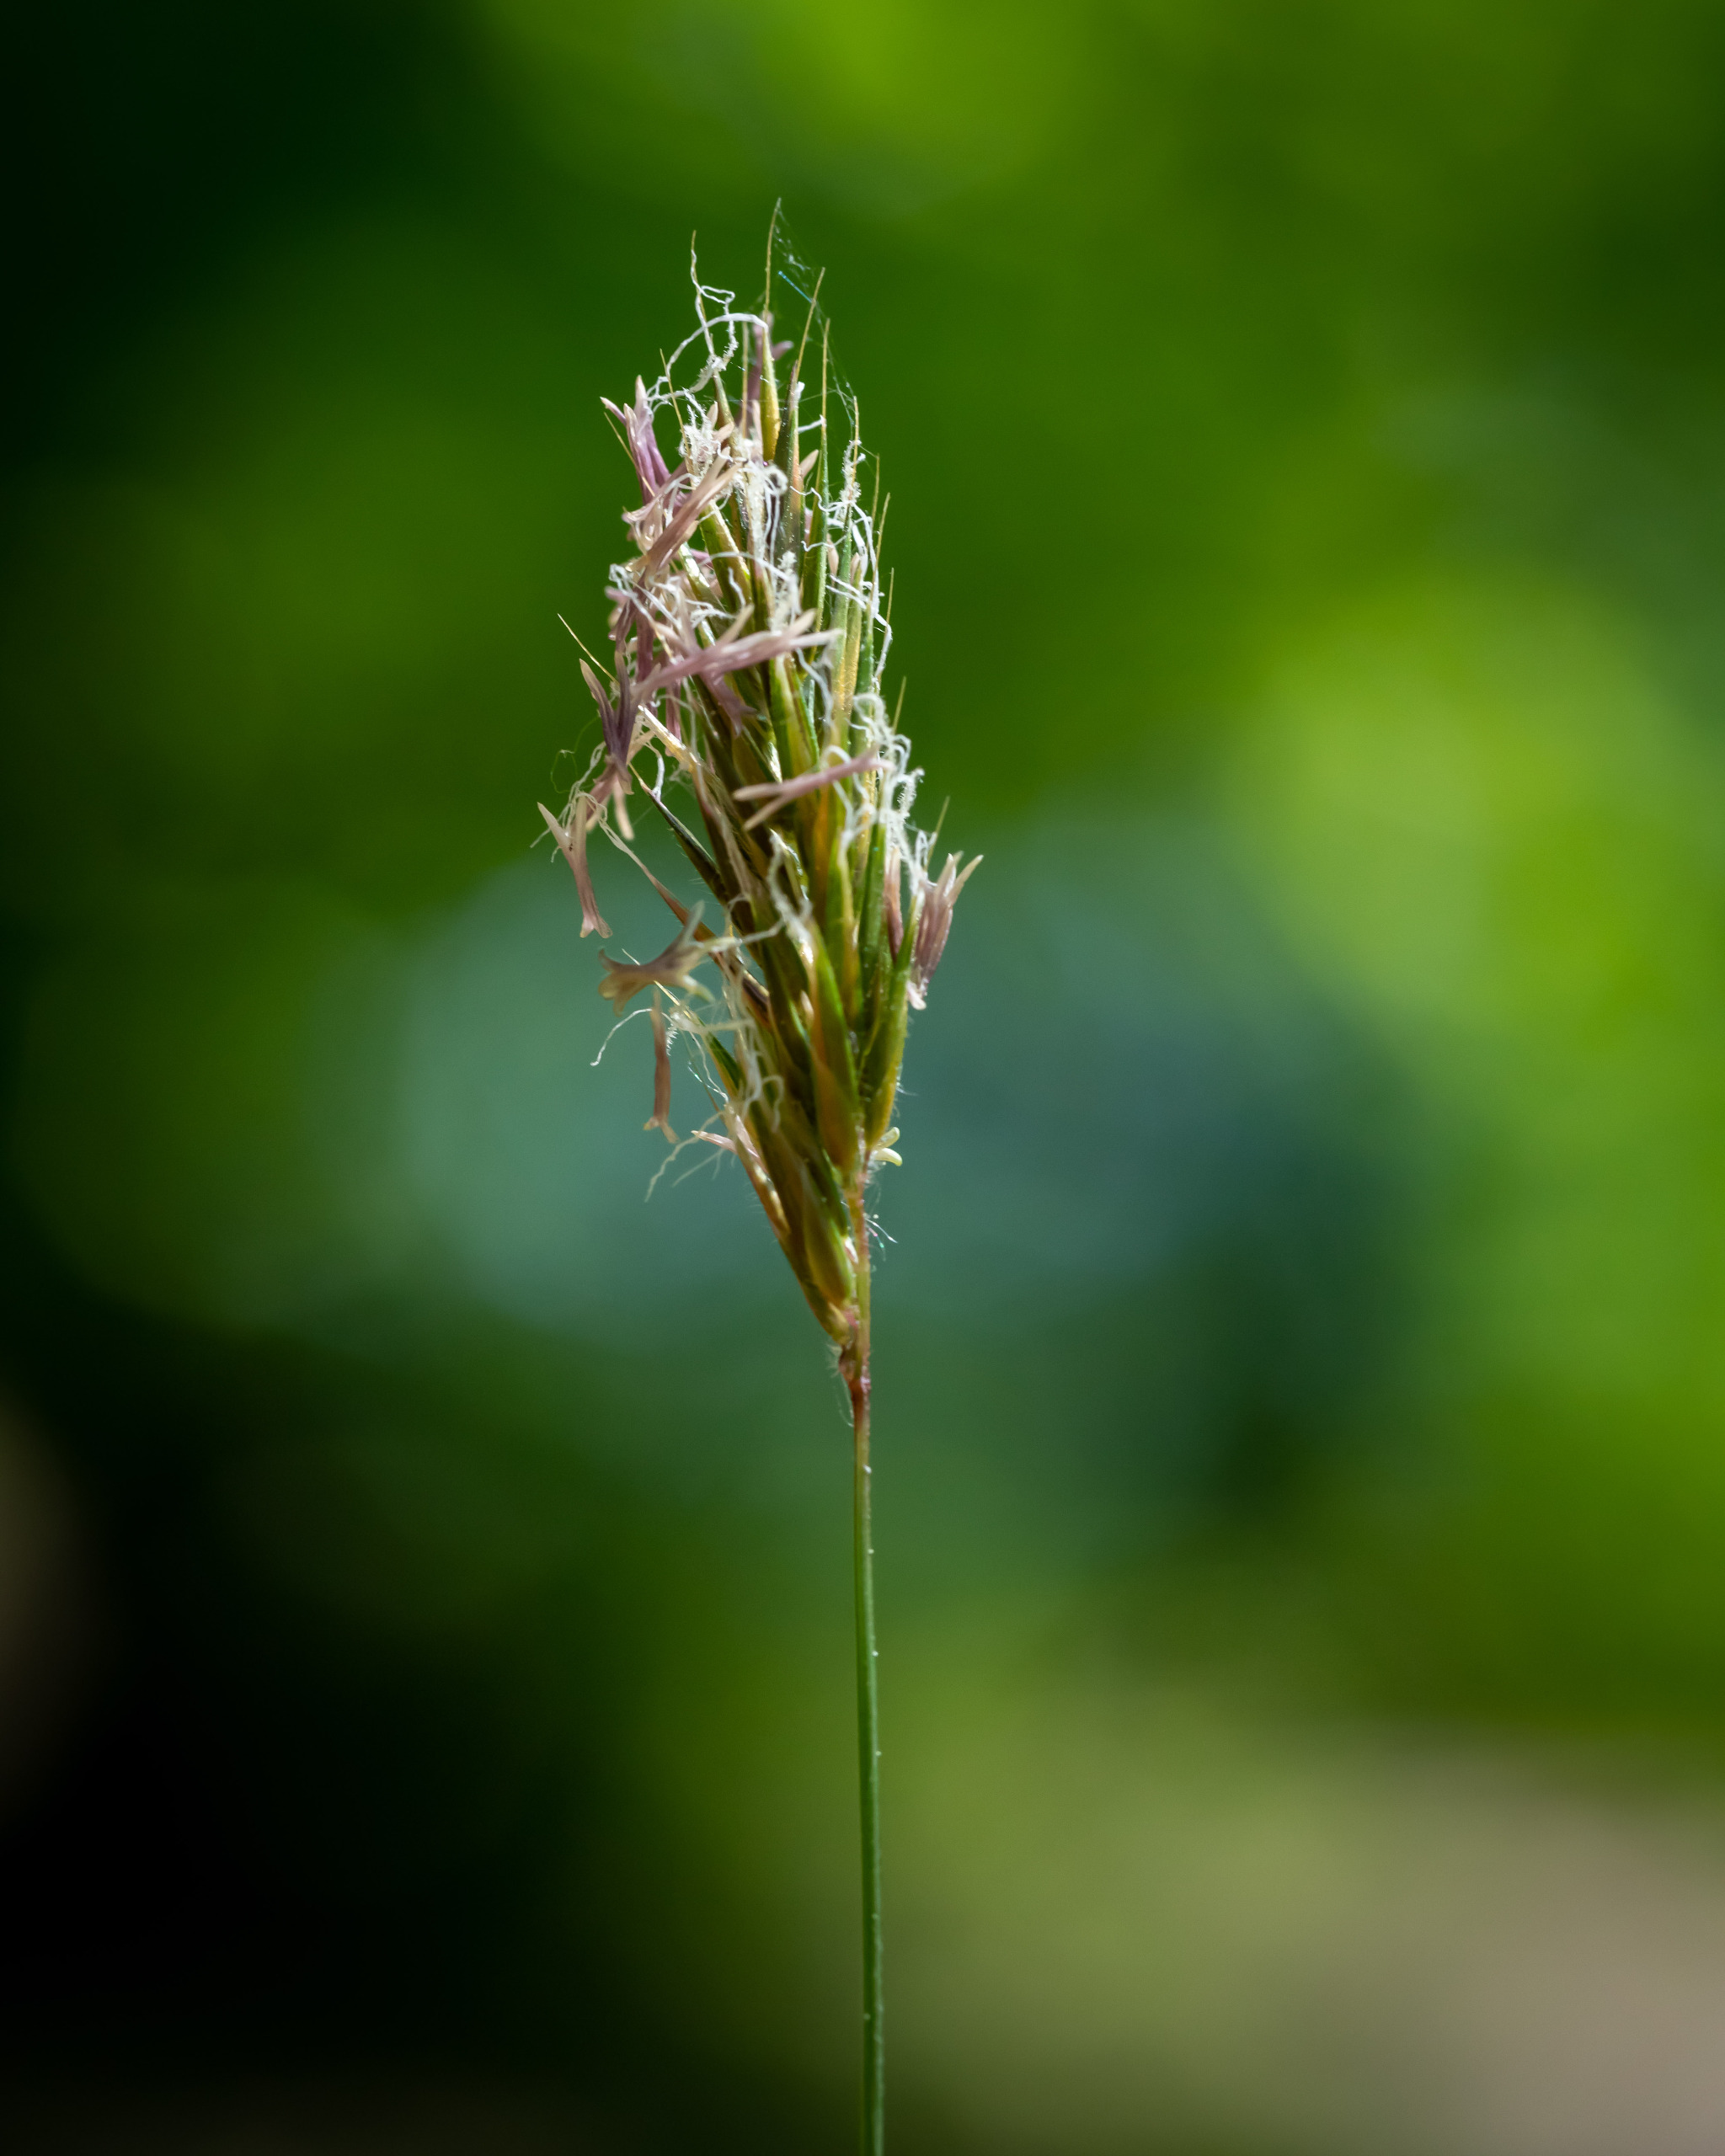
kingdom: Plantae
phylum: Tracheophyta
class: Liliopsida
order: Poales
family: Poaceae
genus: Anthoxanthum
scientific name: Anthoxanthum odoratum
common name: Vellugtende gulaks
